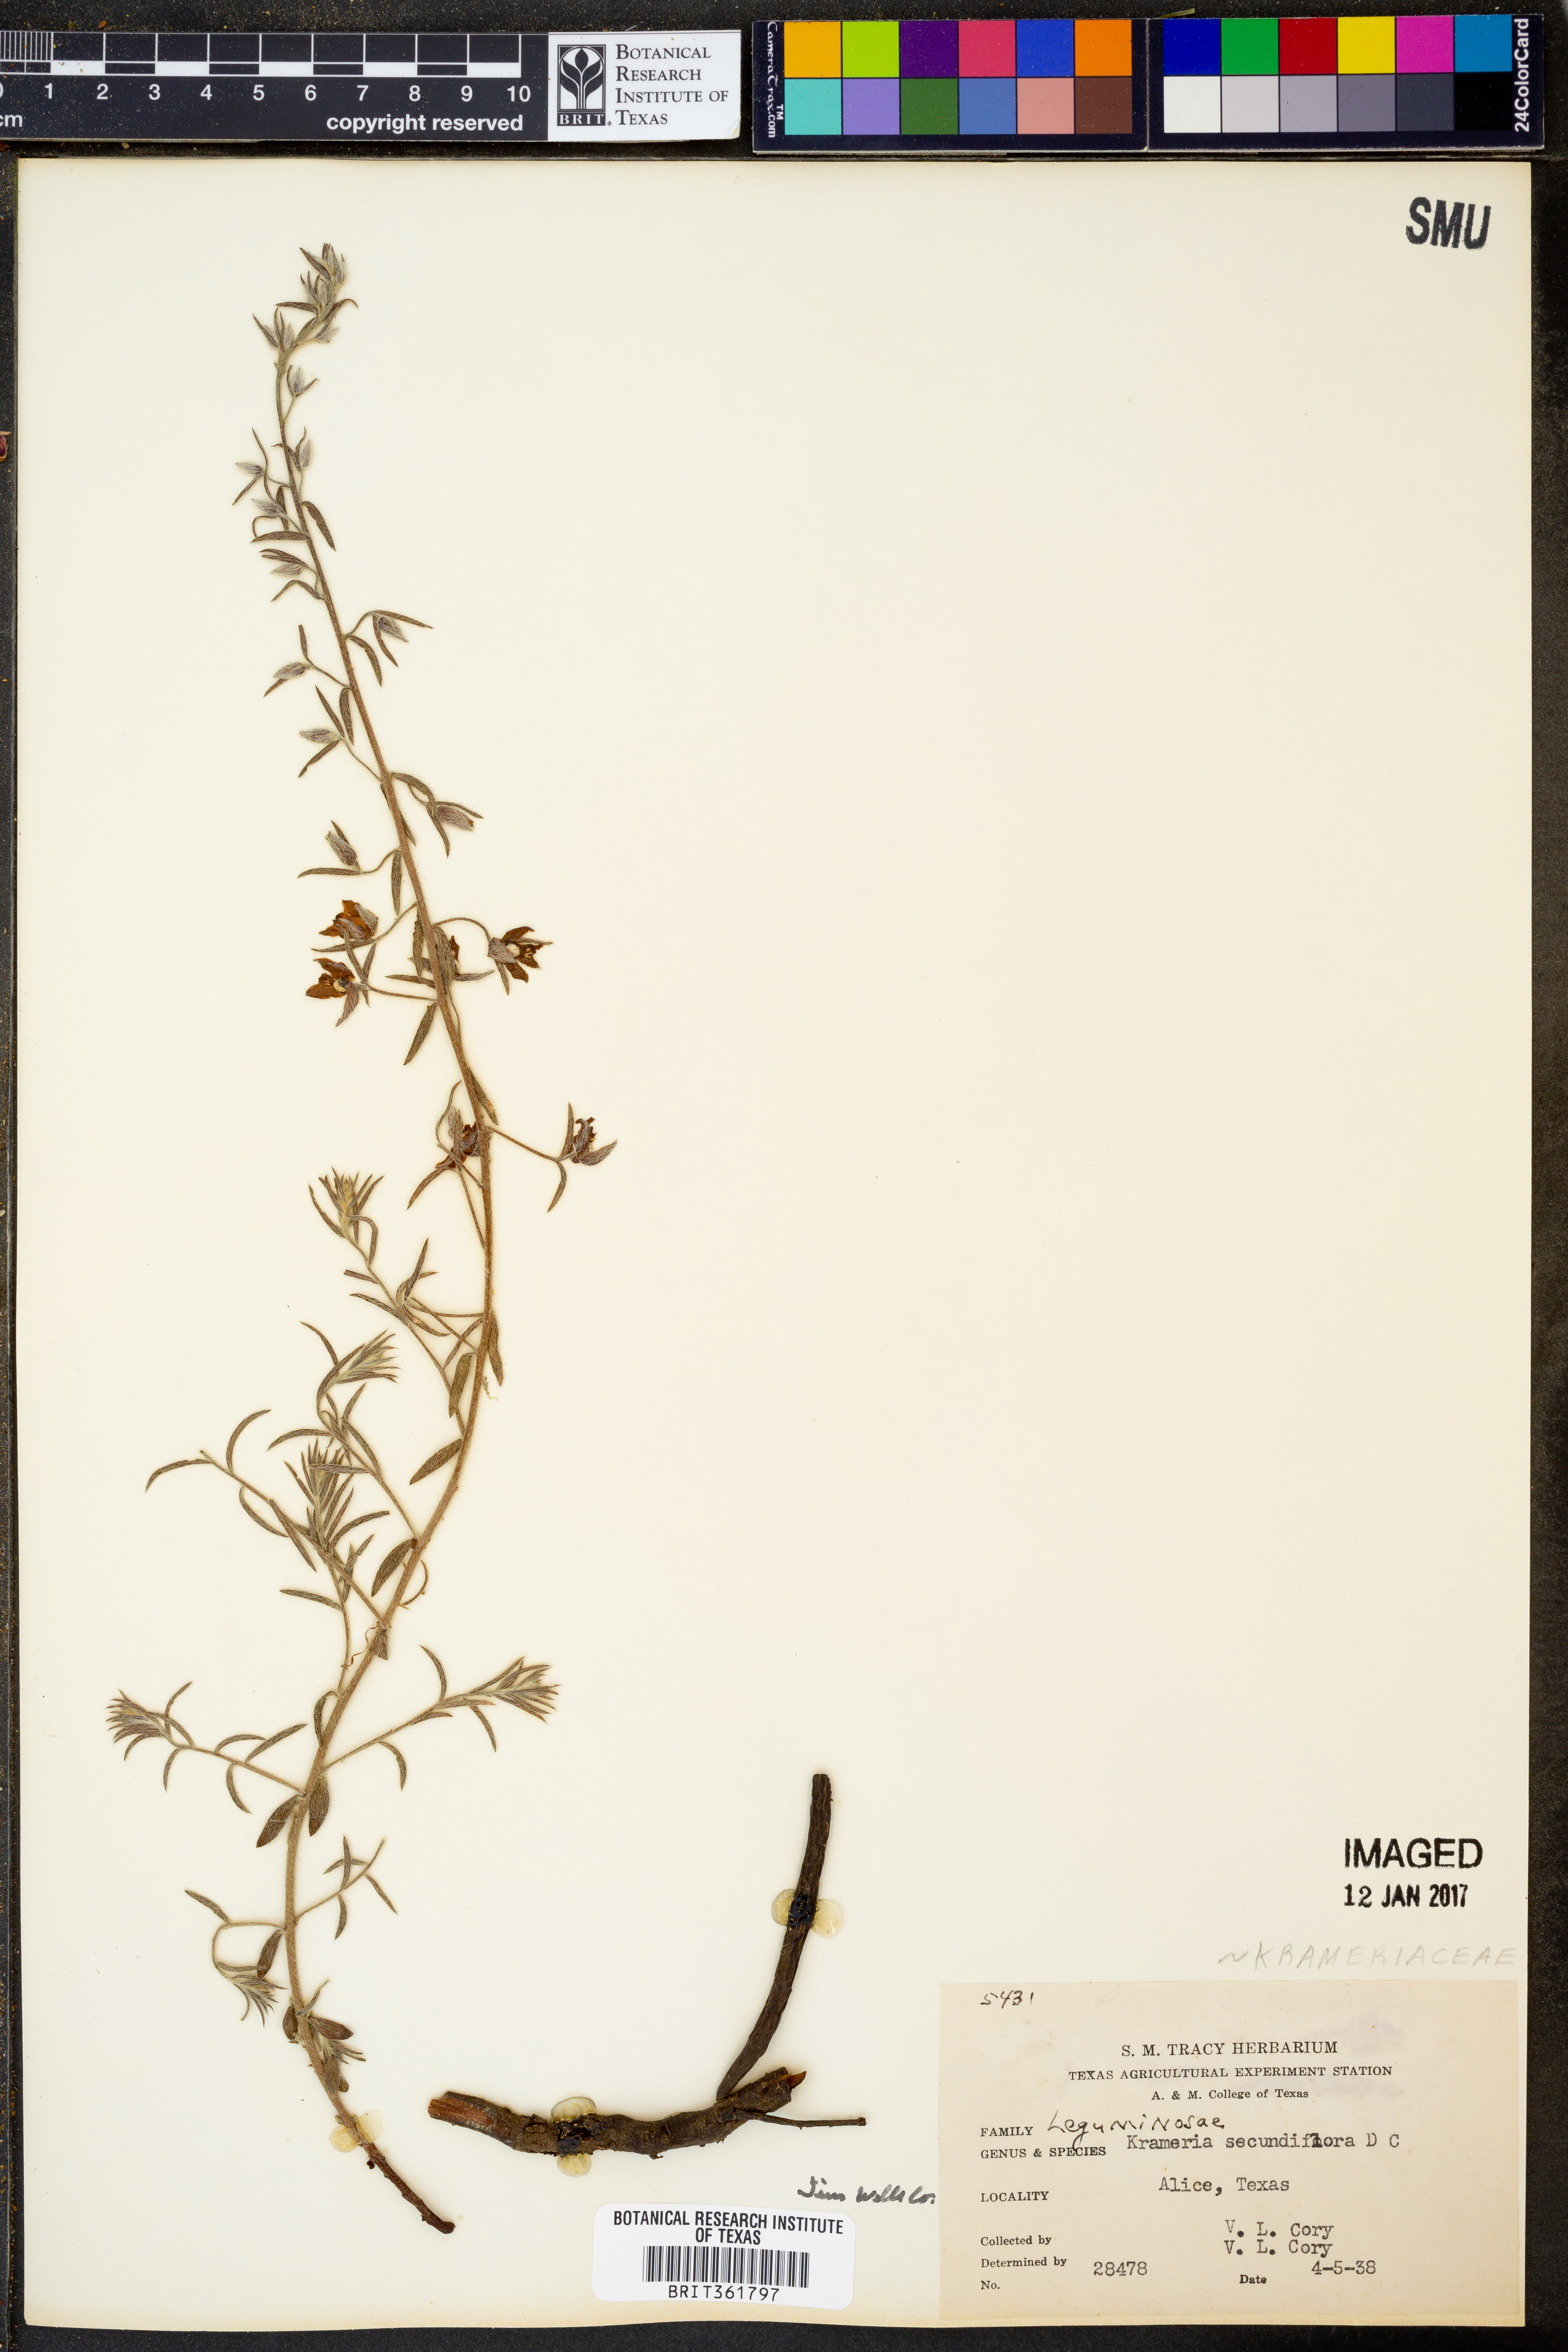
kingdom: Plantae
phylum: Tracheophyta
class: Magnoliopsida
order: Zygophyllales
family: Krameriaceae
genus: Krameria
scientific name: Krameria secundiflora
